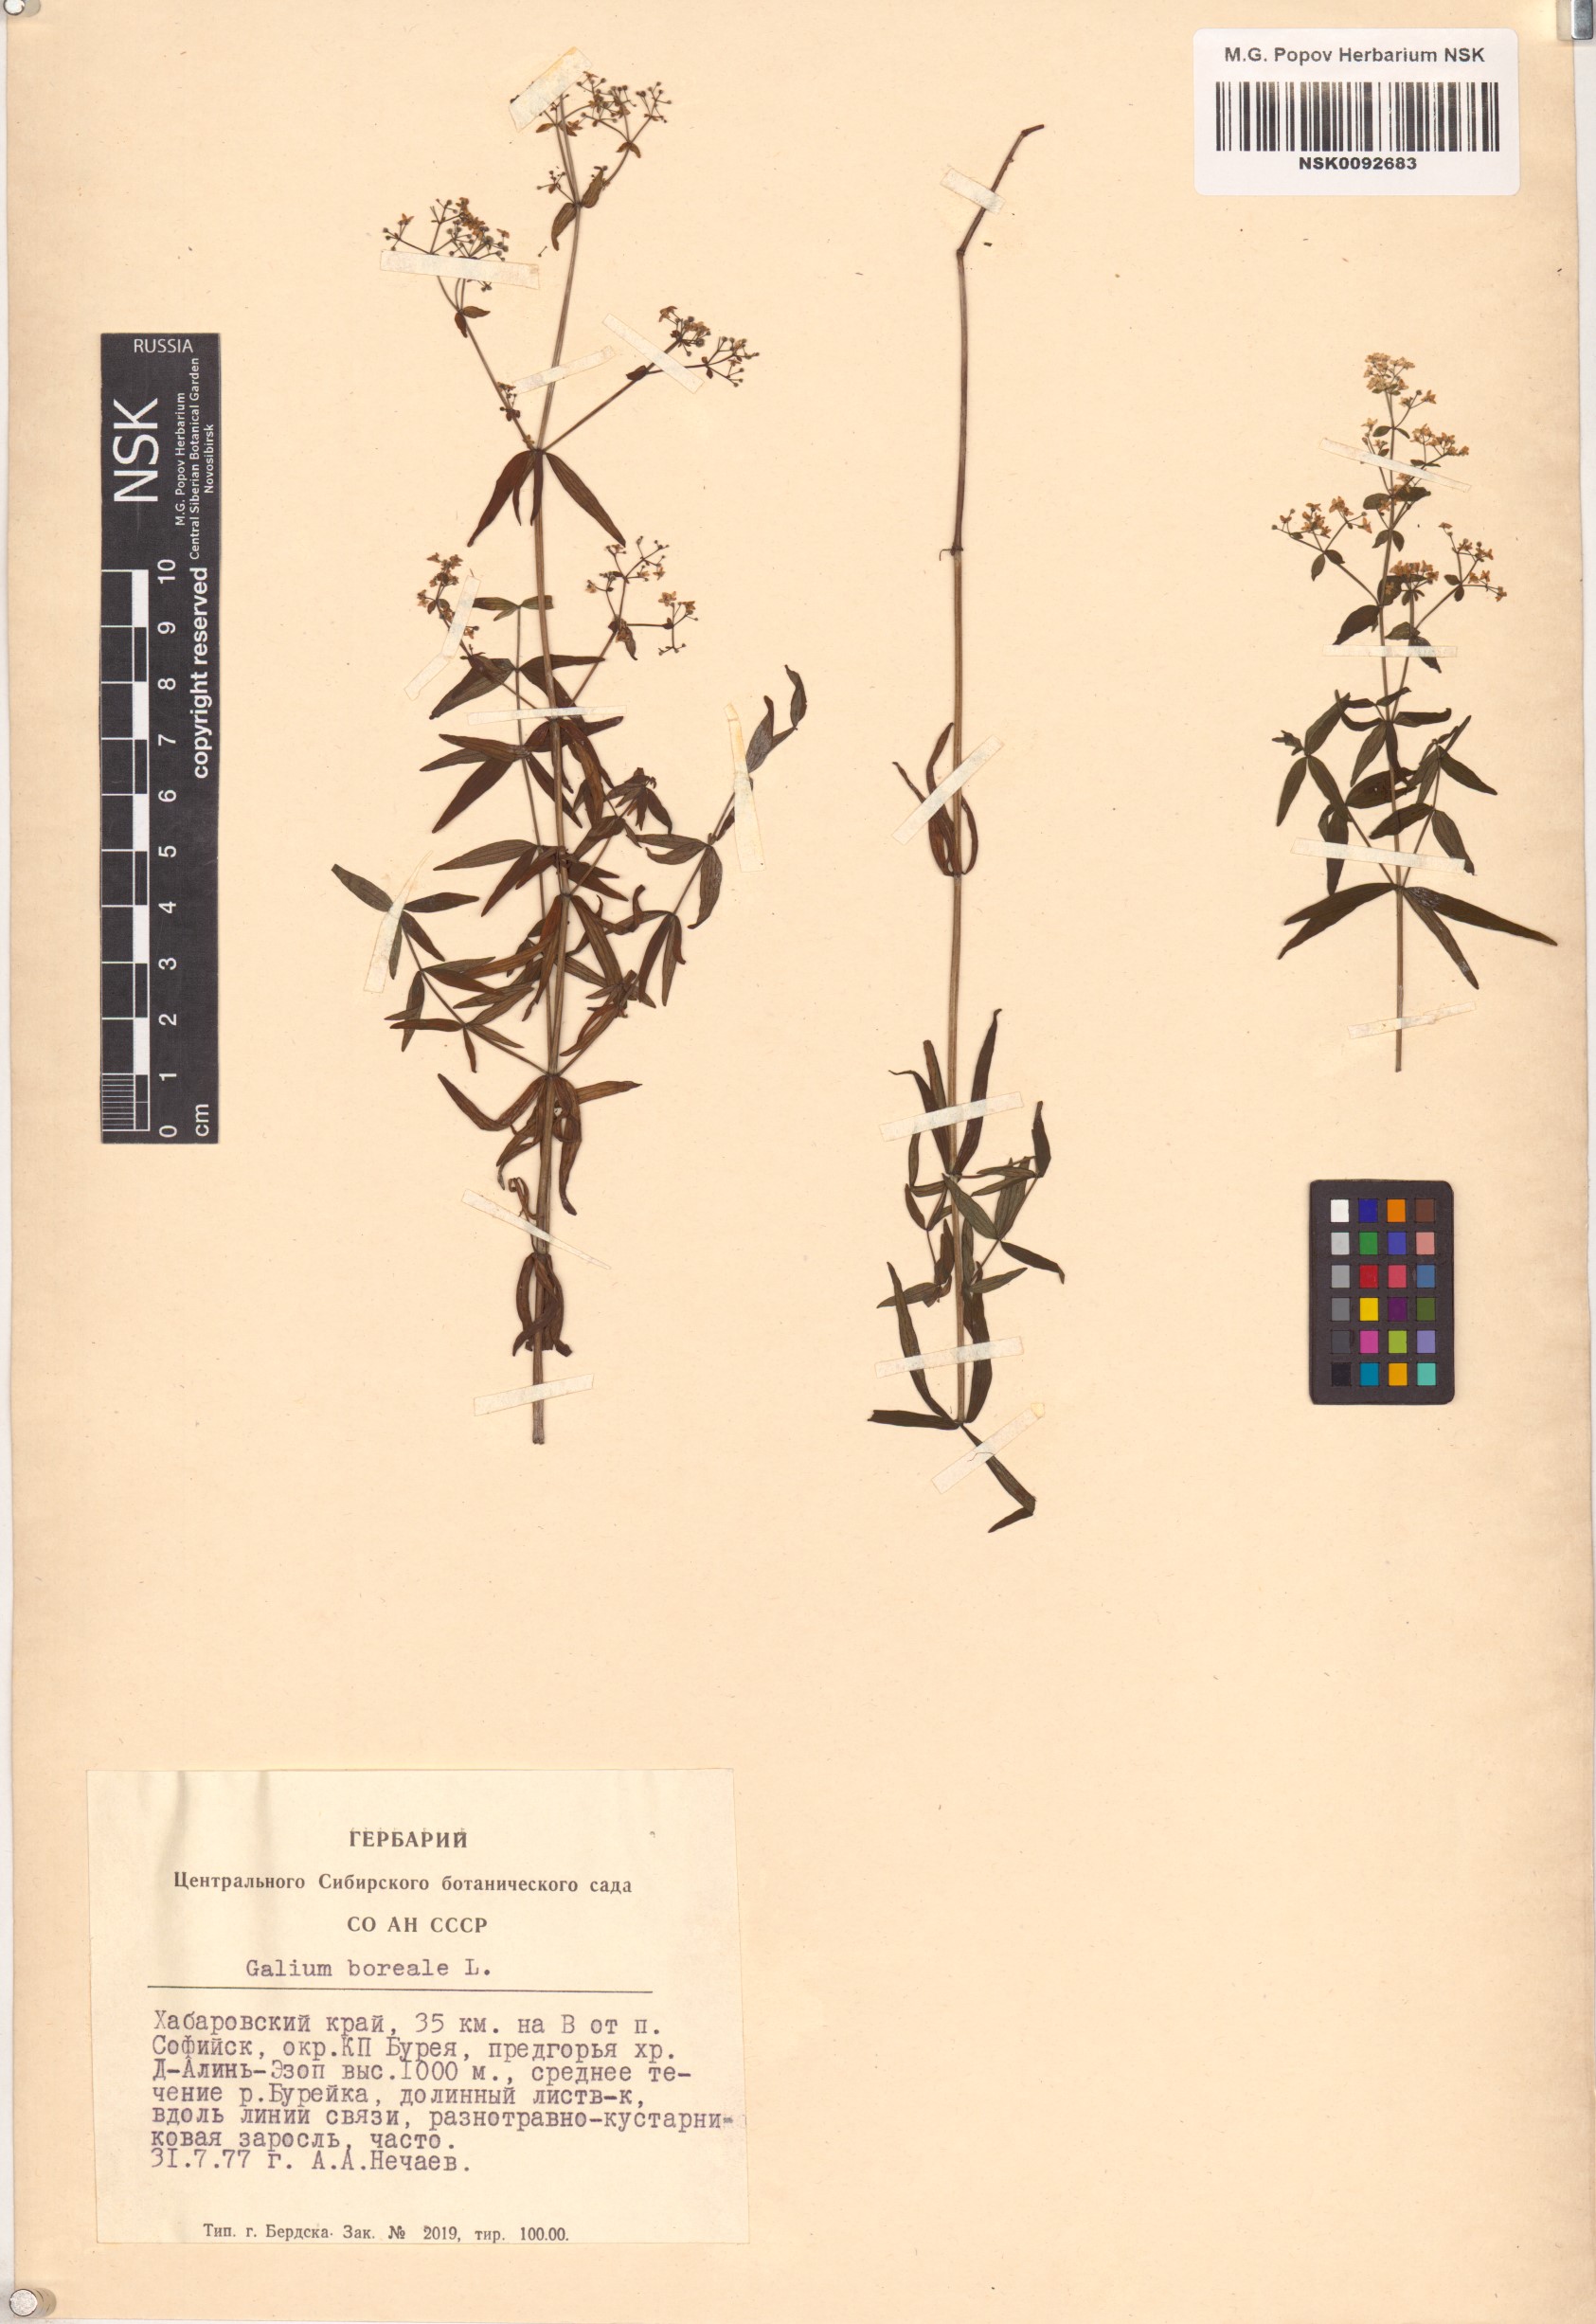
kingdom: Plantae
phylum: Tracheophyta
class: Magnoliopsida
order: Gentianales
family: Rubiaceae
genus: Galium
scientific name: Galium boreale
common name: Northern bedstraw
